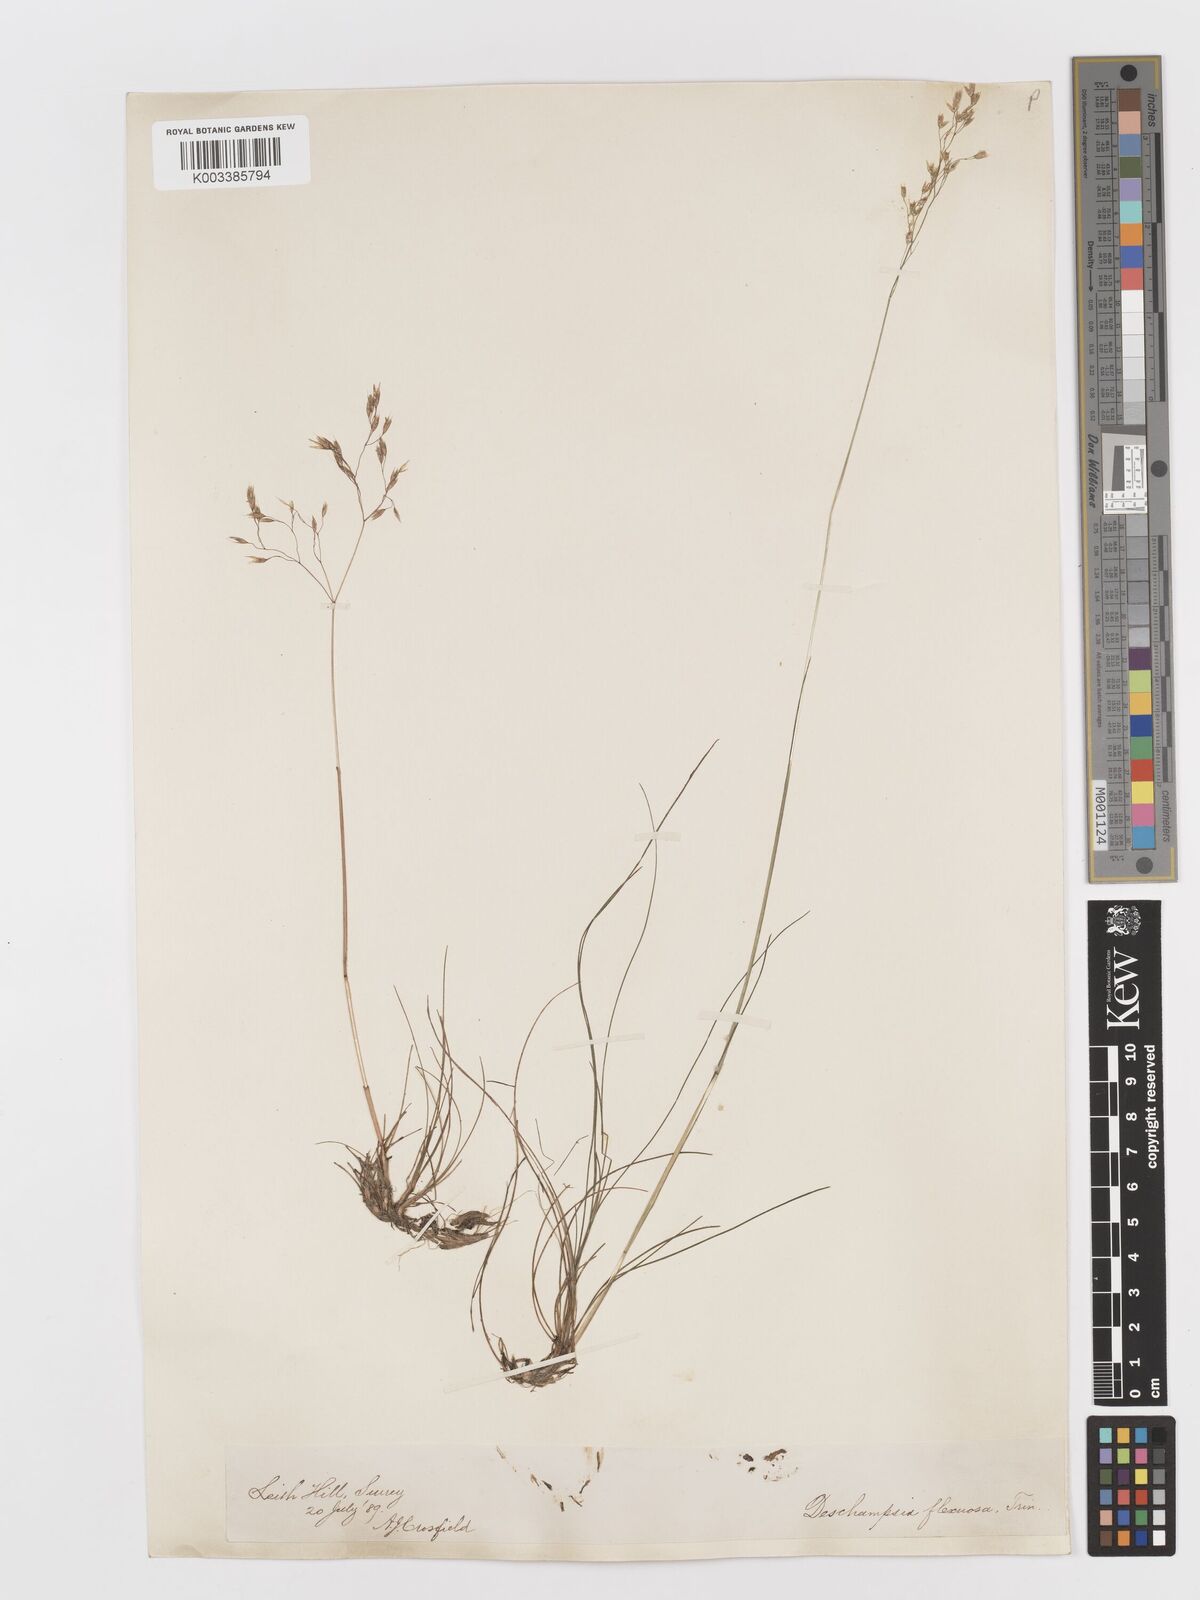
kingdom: Plantae
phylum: Tracheophyta
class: Liliopsida
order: Poales
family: Poaceae
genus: Avenella
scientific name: Avenella flexuosa
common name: Wavy hairgrass
